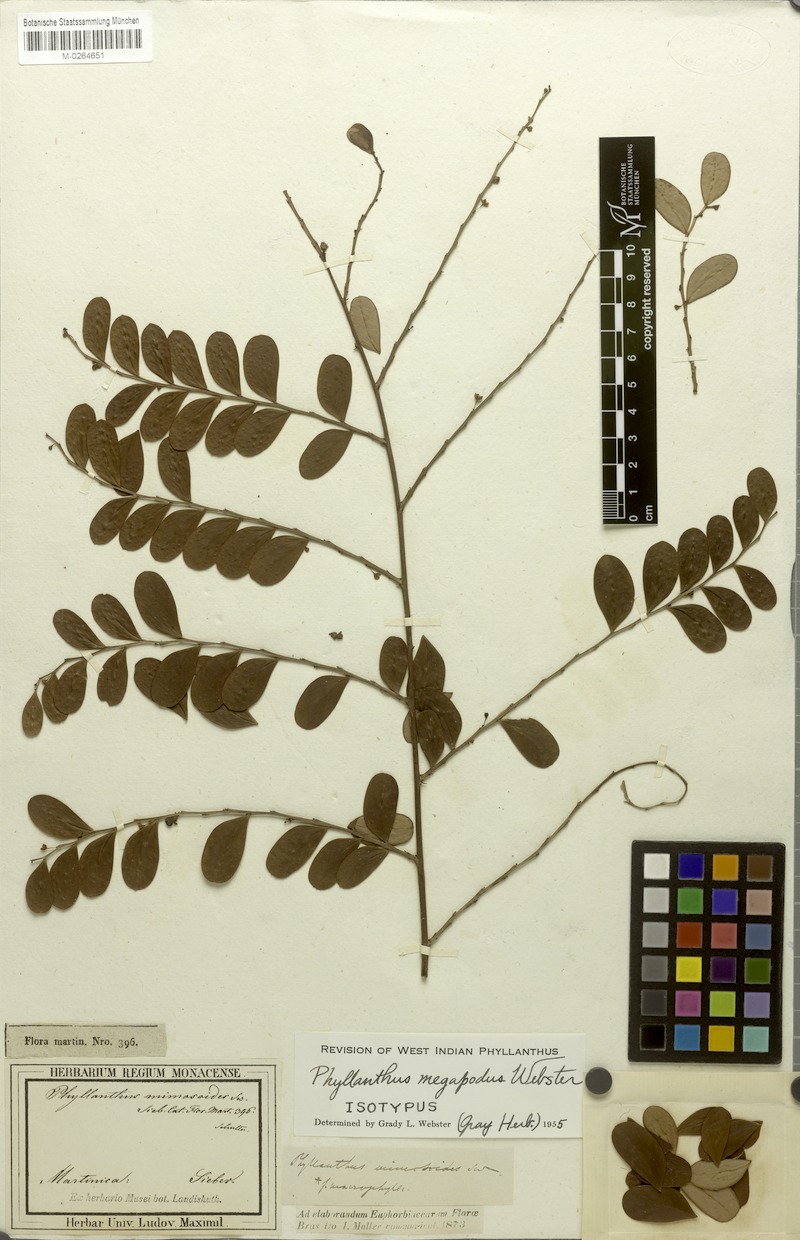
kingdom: Plantae
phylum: Tracheophyta
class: Magnoliopsida
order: Malpighiales
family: Phyllanthaceae
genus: Phyllanthus
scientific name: Phyllanthus megapodus
